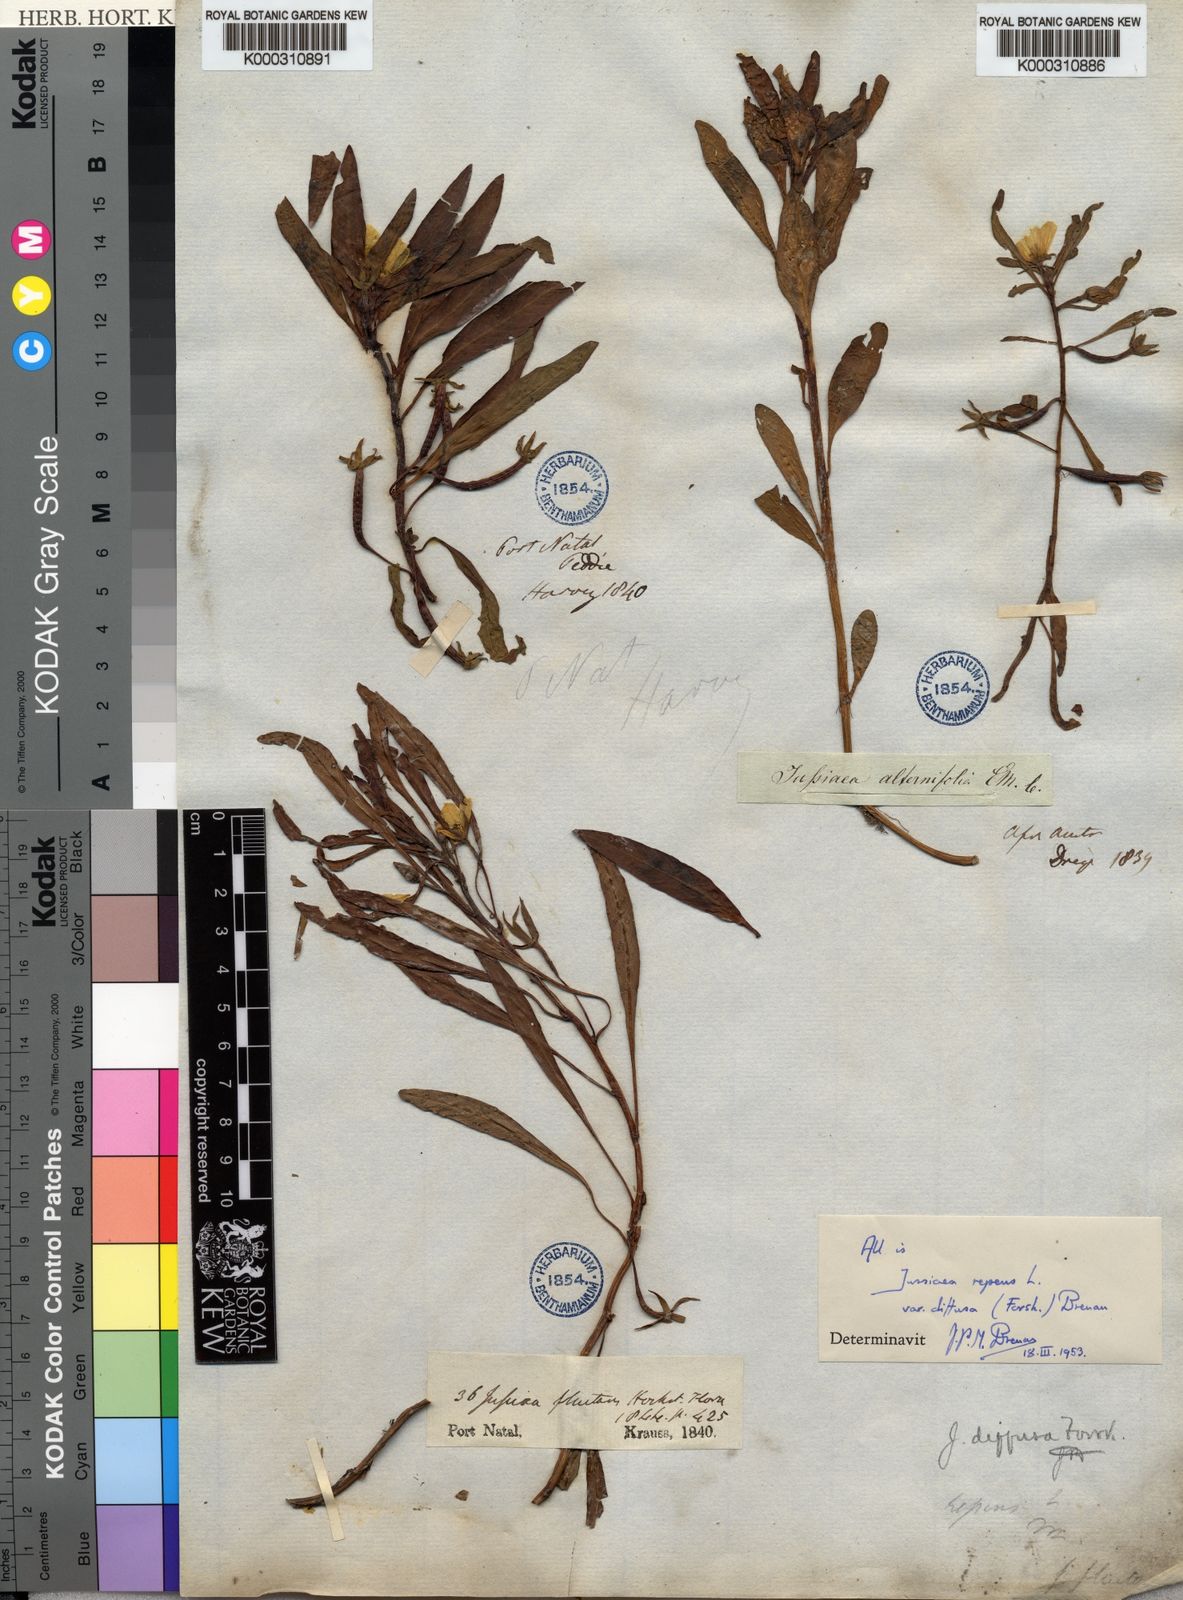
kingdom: Plantae
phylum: Tracheophyta
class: Magnoliopsida
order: Myrtales
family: Onagraceae
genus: Ludwigia
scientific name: Ludwigia adscendens
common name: Creeping water primrose
